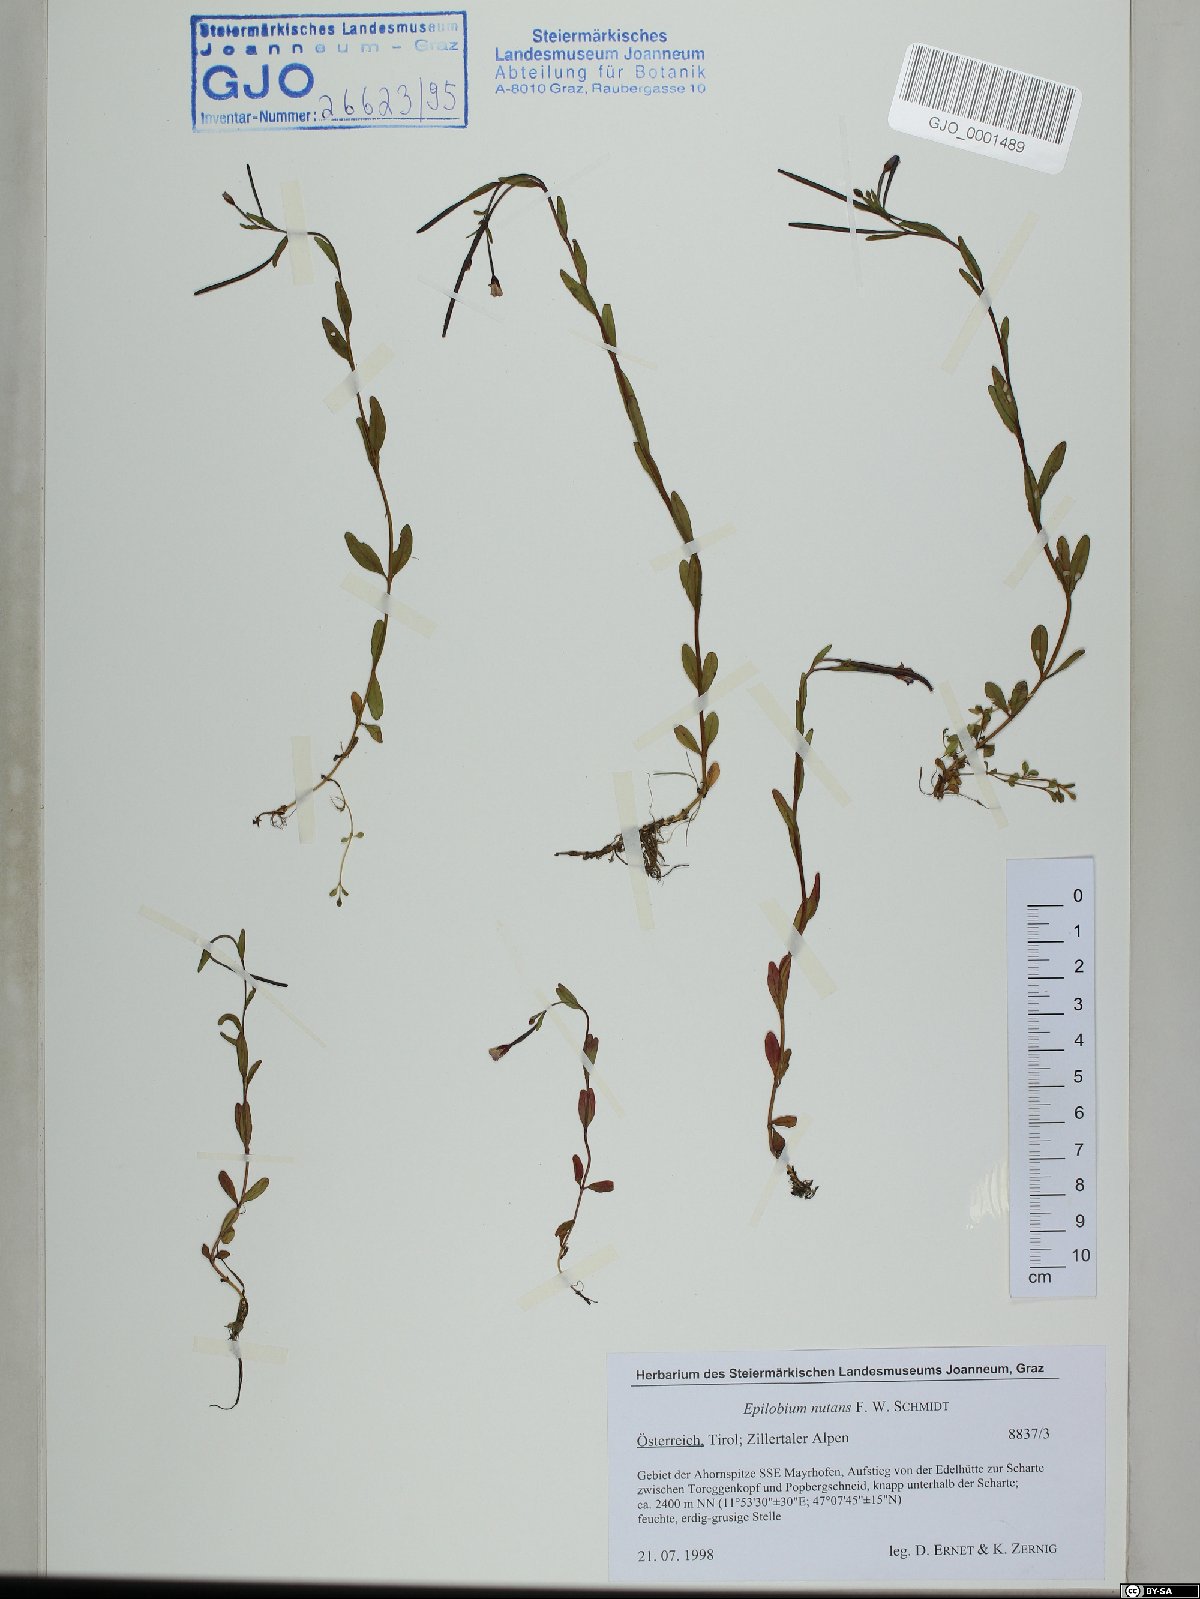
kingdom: Plantae
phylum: Tracheophyta
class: Magnoliopsida
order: Myrtales
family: Onagraceae
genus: Epilobium
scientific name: Epilobium nutans
